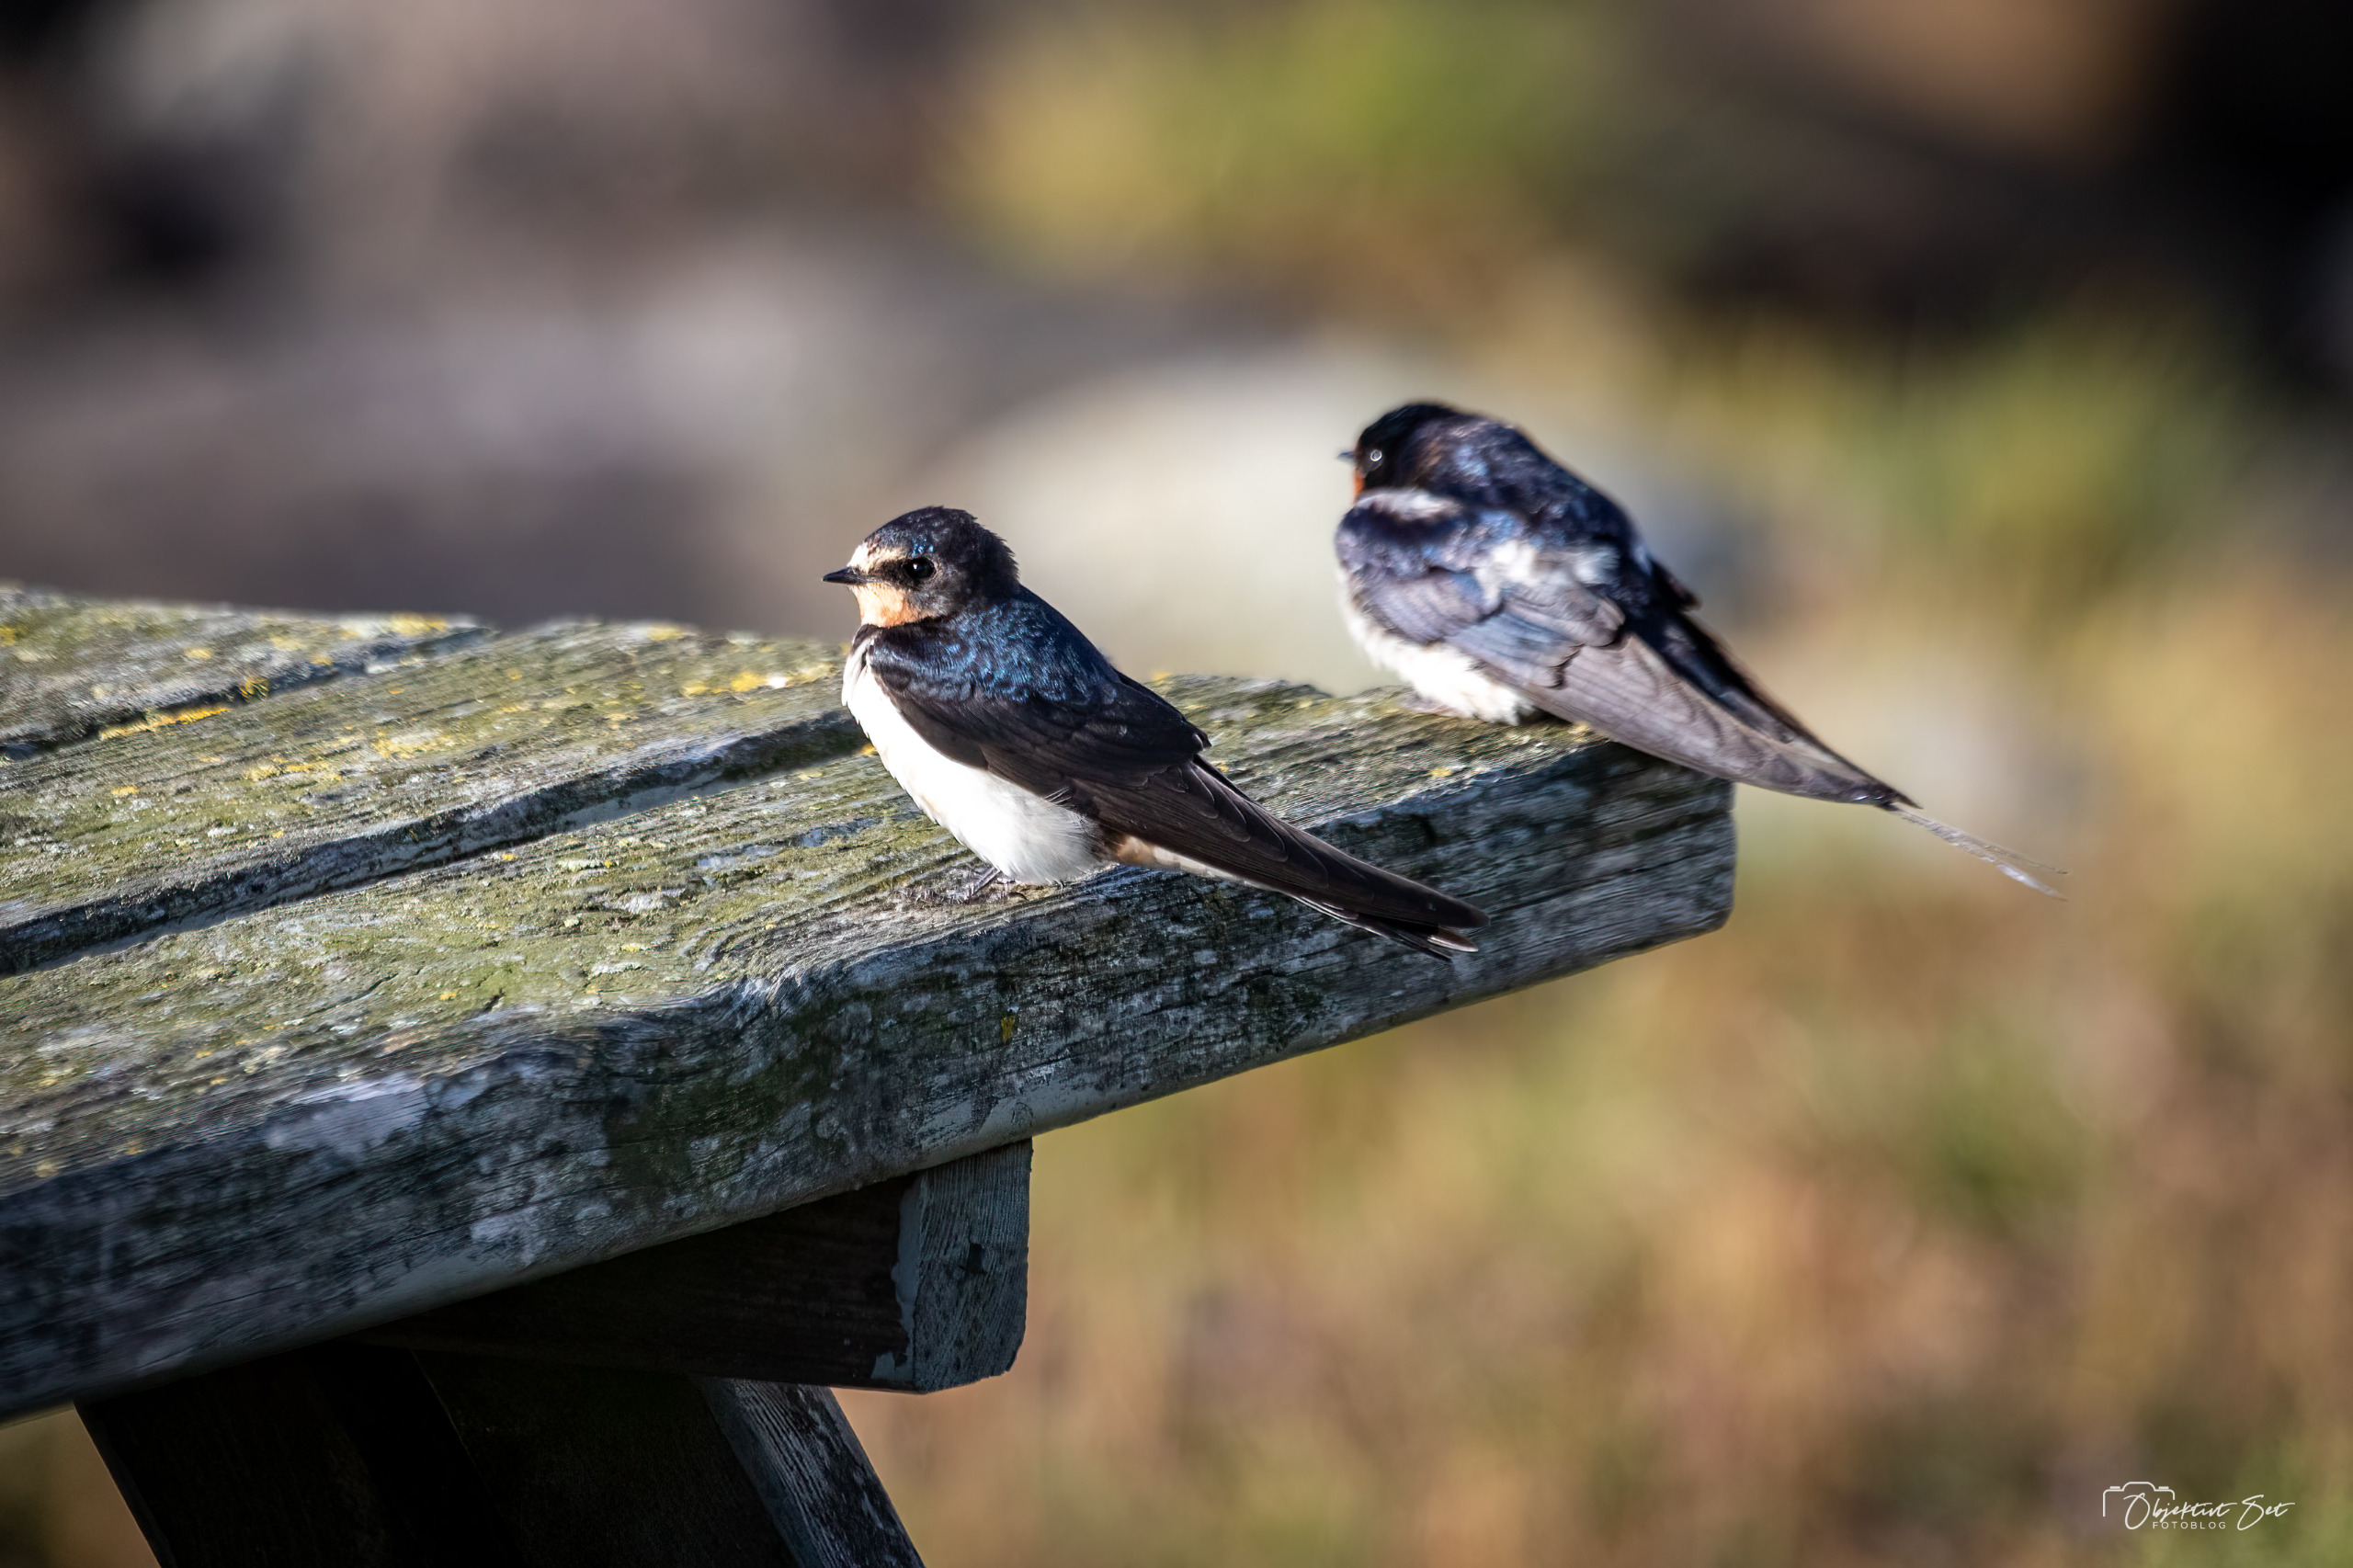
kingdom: Animalia
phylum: Chordata
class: Aves
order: Passeriformes
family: Hirundinidae
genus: Hirundo
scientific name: Hirundo rustica
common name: Landsvale
